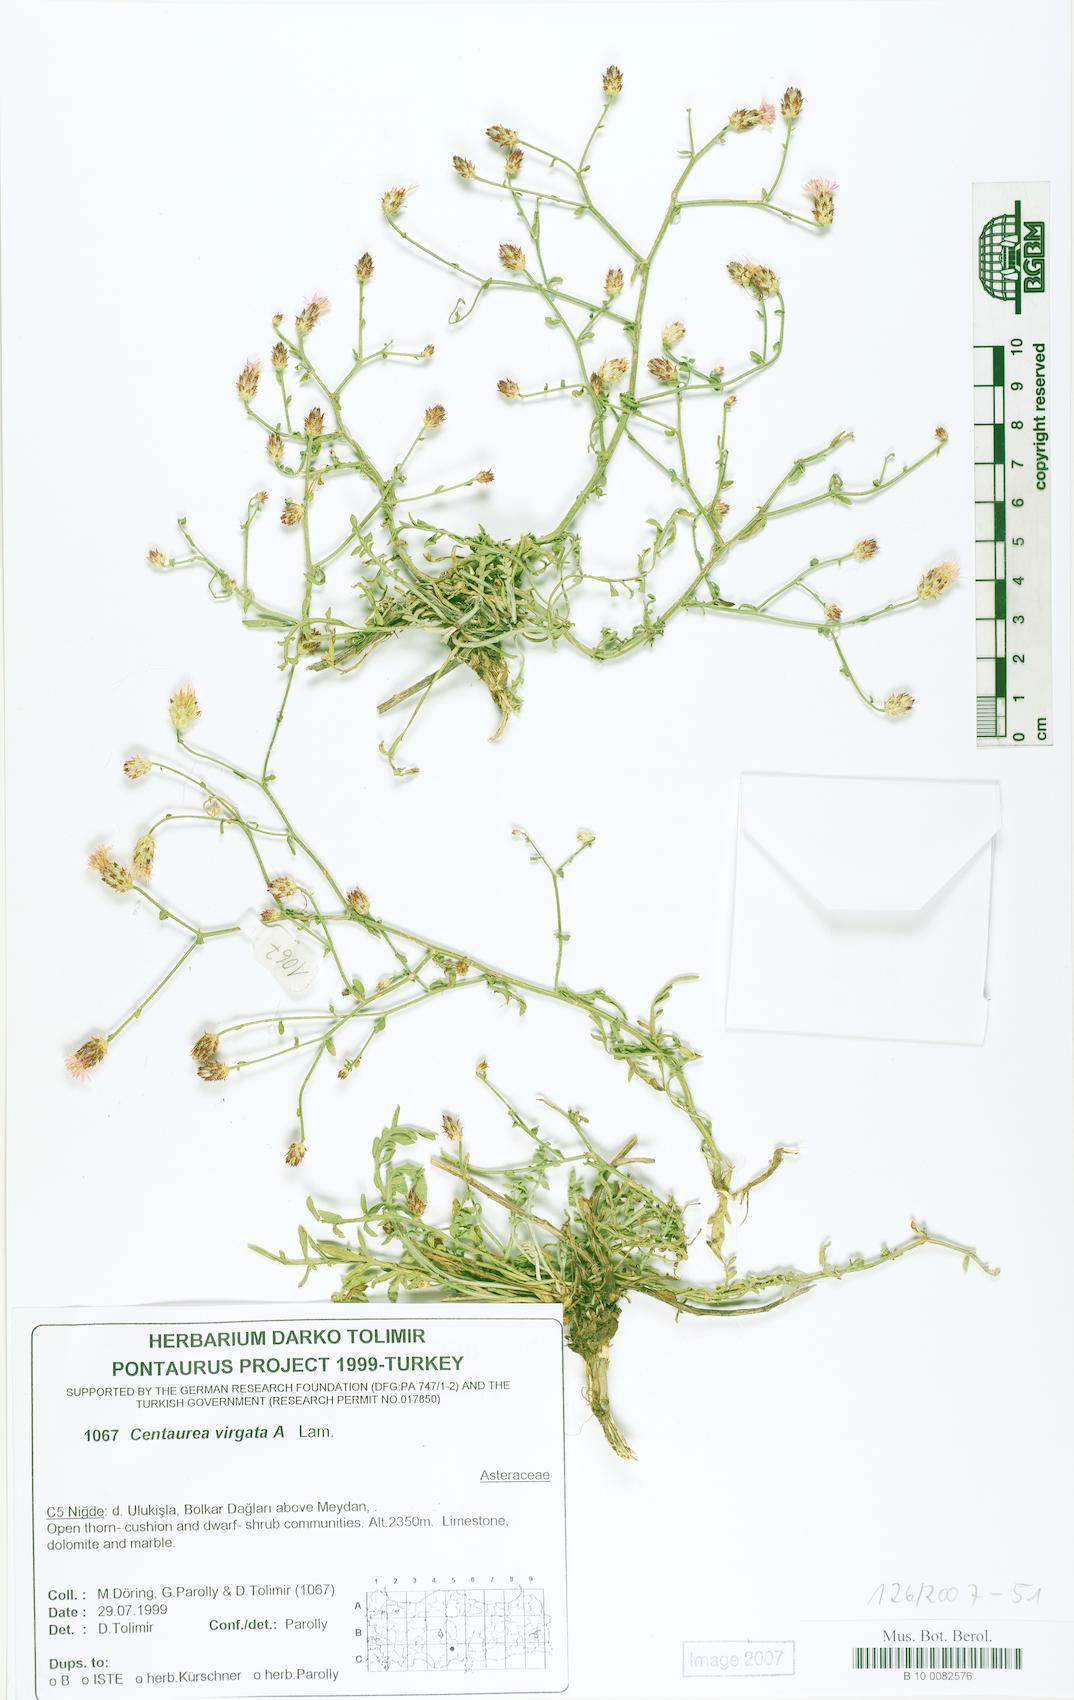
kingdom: Plantae
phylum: Tracheophyta
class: Magnoliopsida
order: Asterales
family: Asteraceae
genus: Centaurea
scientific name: Centaurea virgata
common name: Squarrose knapweed
